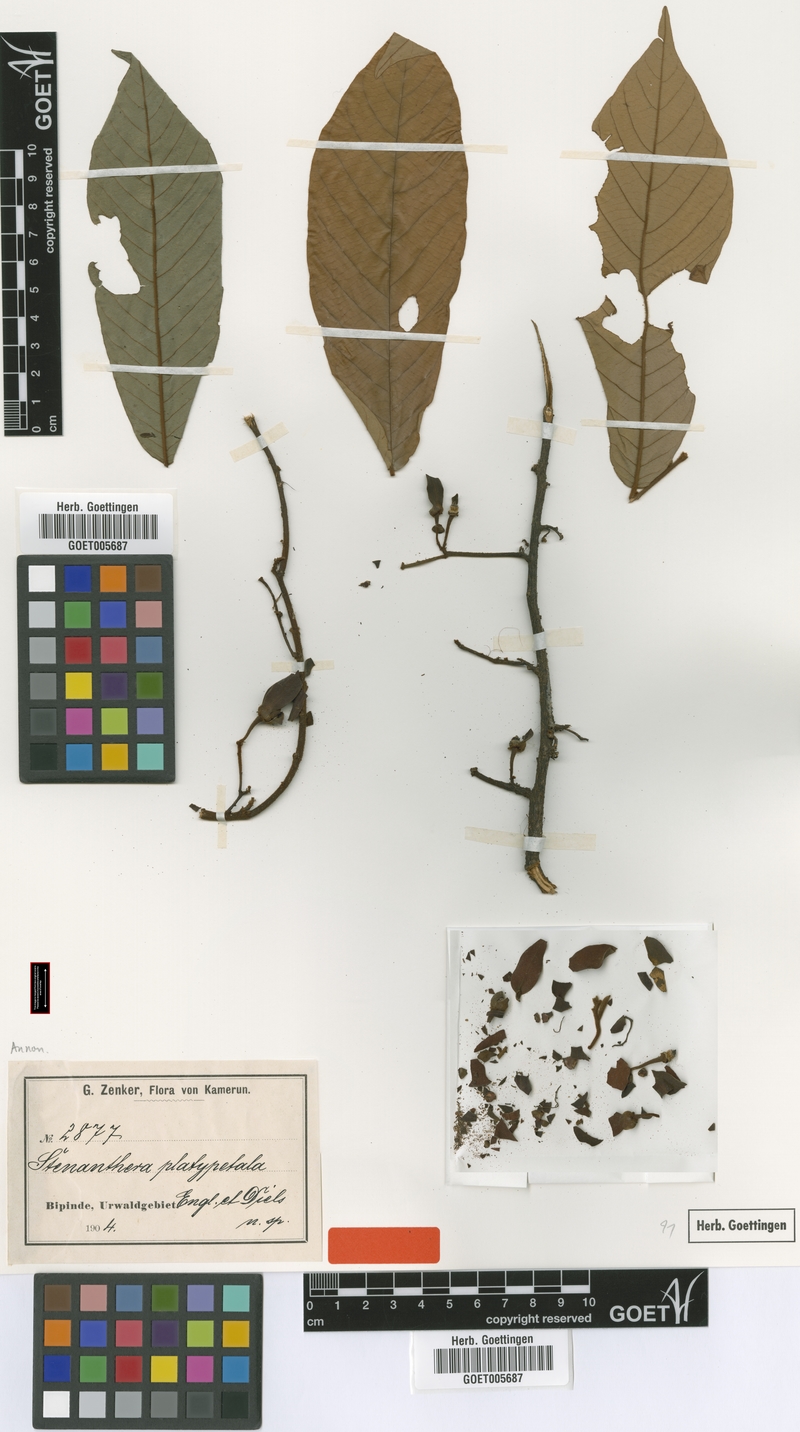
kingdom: Plantae
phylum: Tracheophyta
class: Magnoliopsida
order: Magnoliales
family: Annonaceae
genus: Boutiquea
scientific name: Boutiquea platypetala
